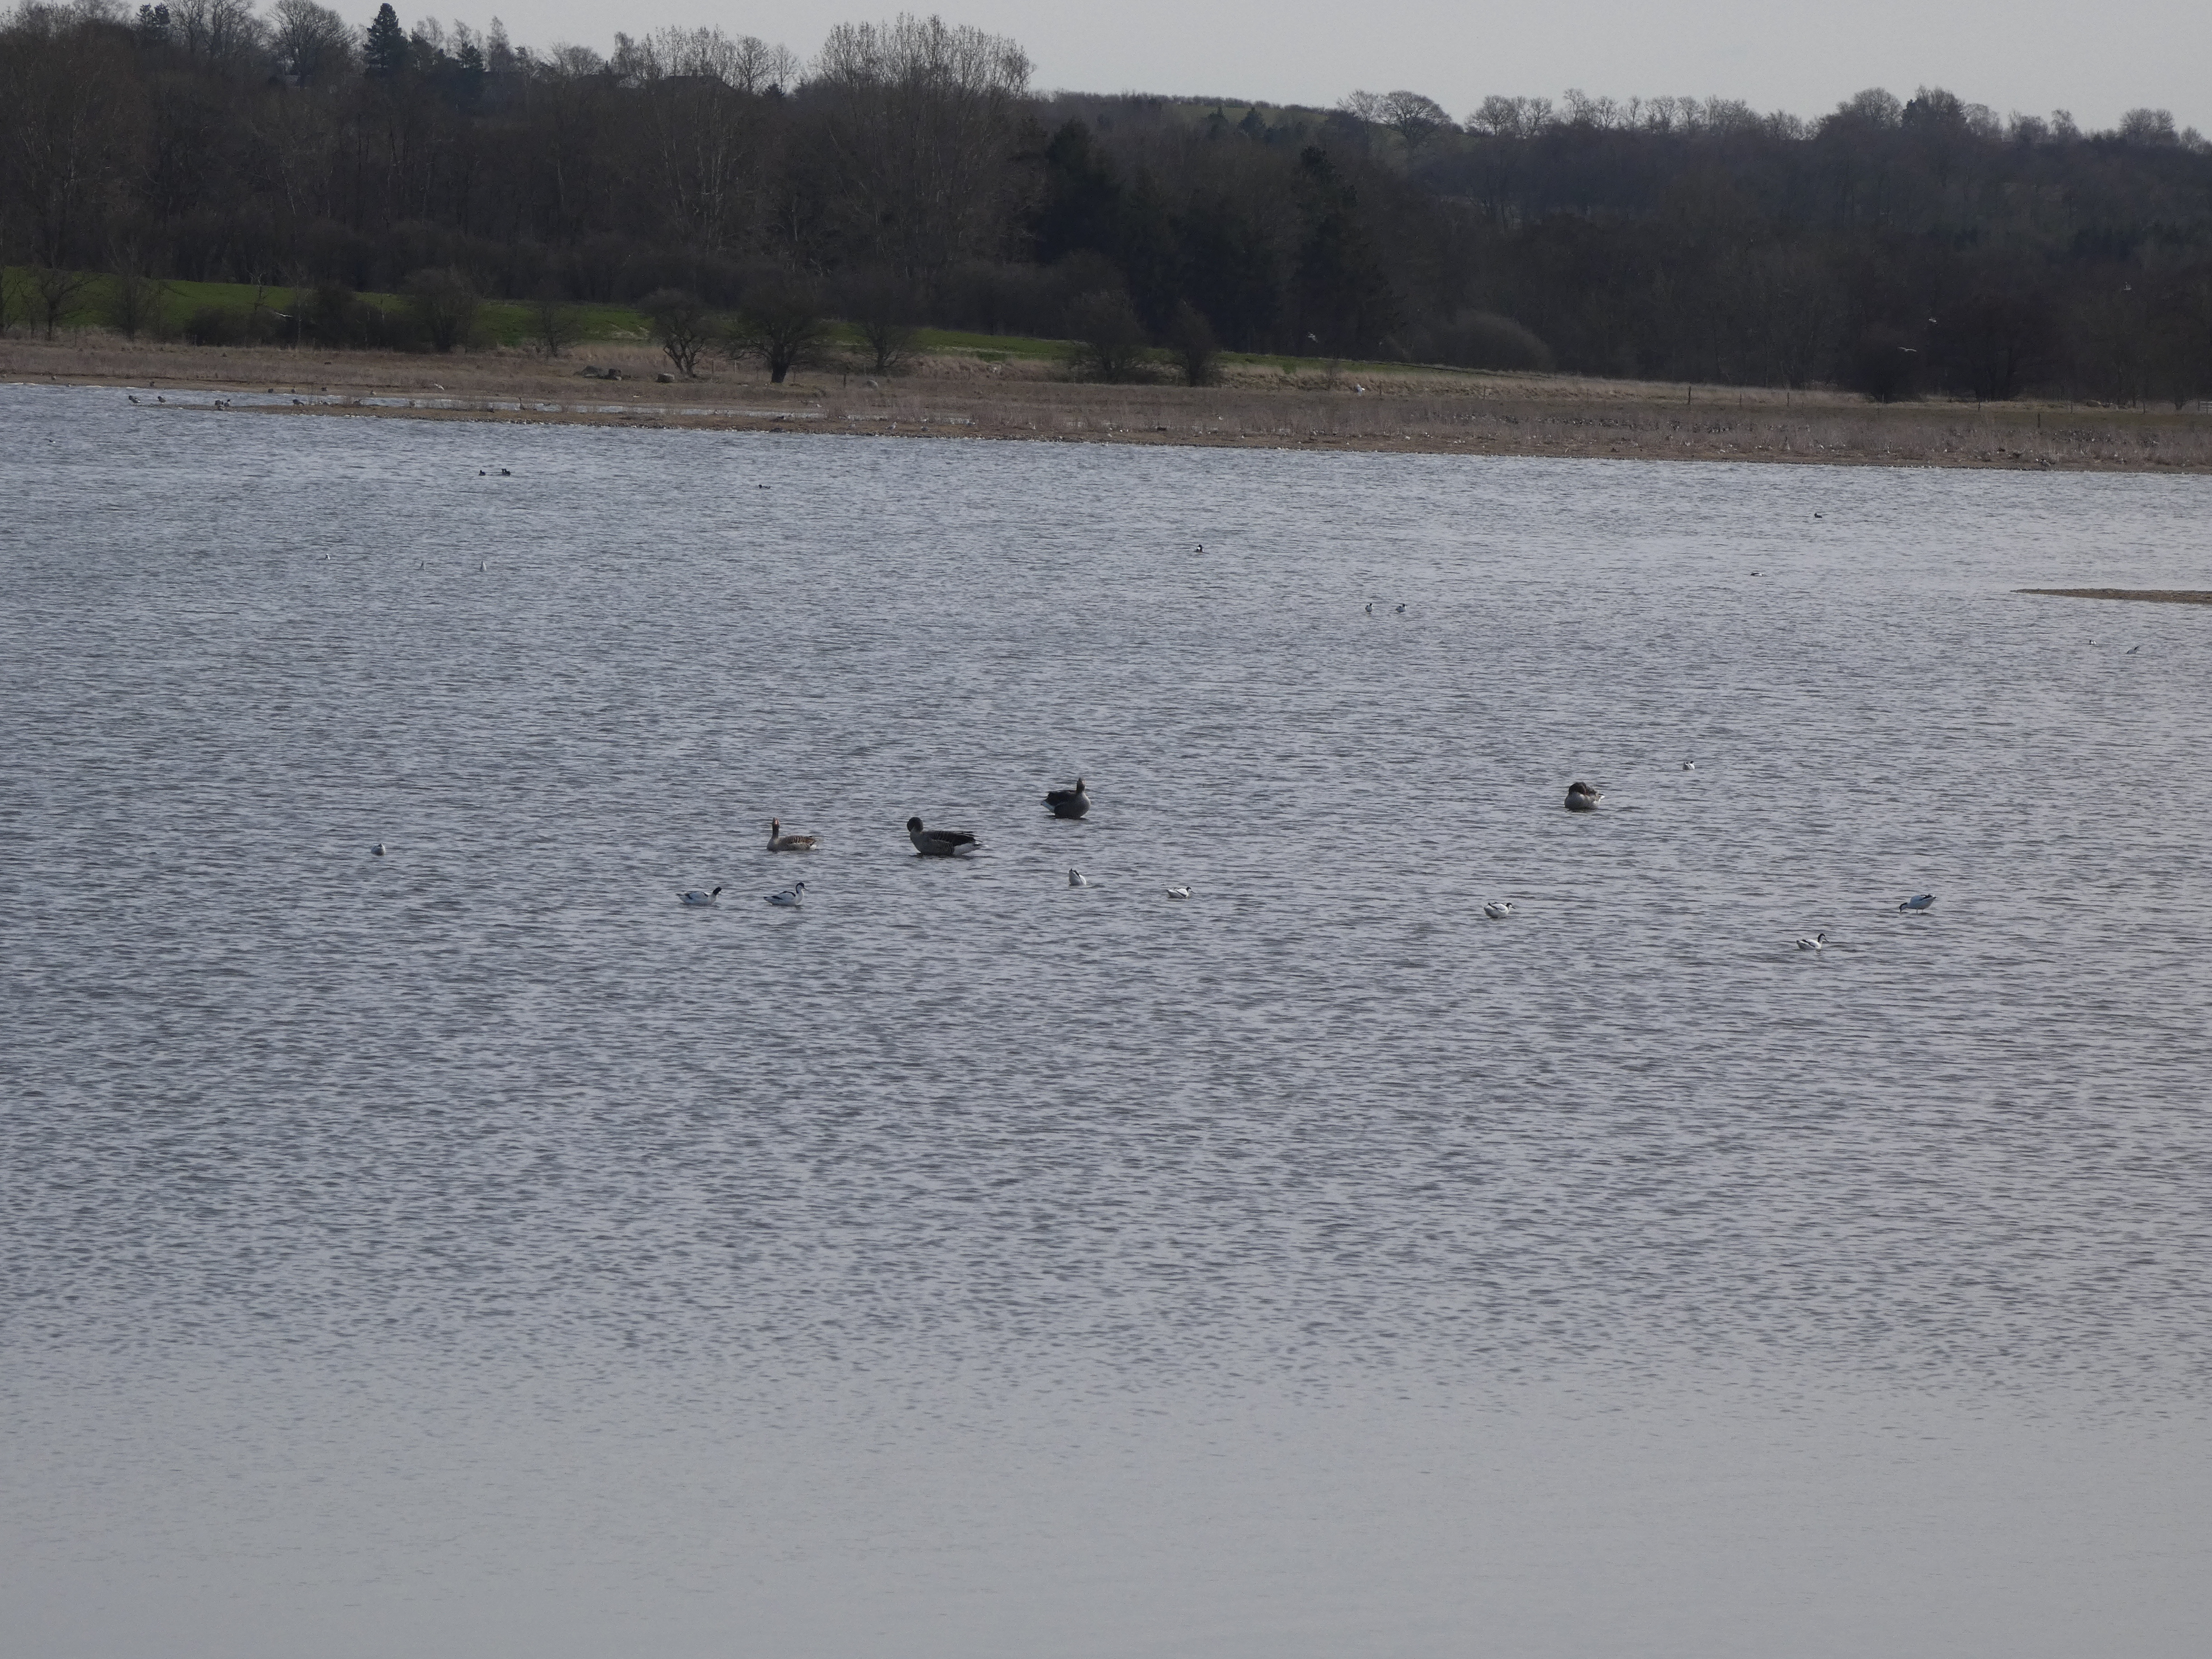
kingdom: Animalia
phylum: Chordata
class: Aves
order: Charadriiformes
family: Recurvirostridae
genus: Recurvirostra
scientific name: Recurvirostra avosetta
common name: Klyde
